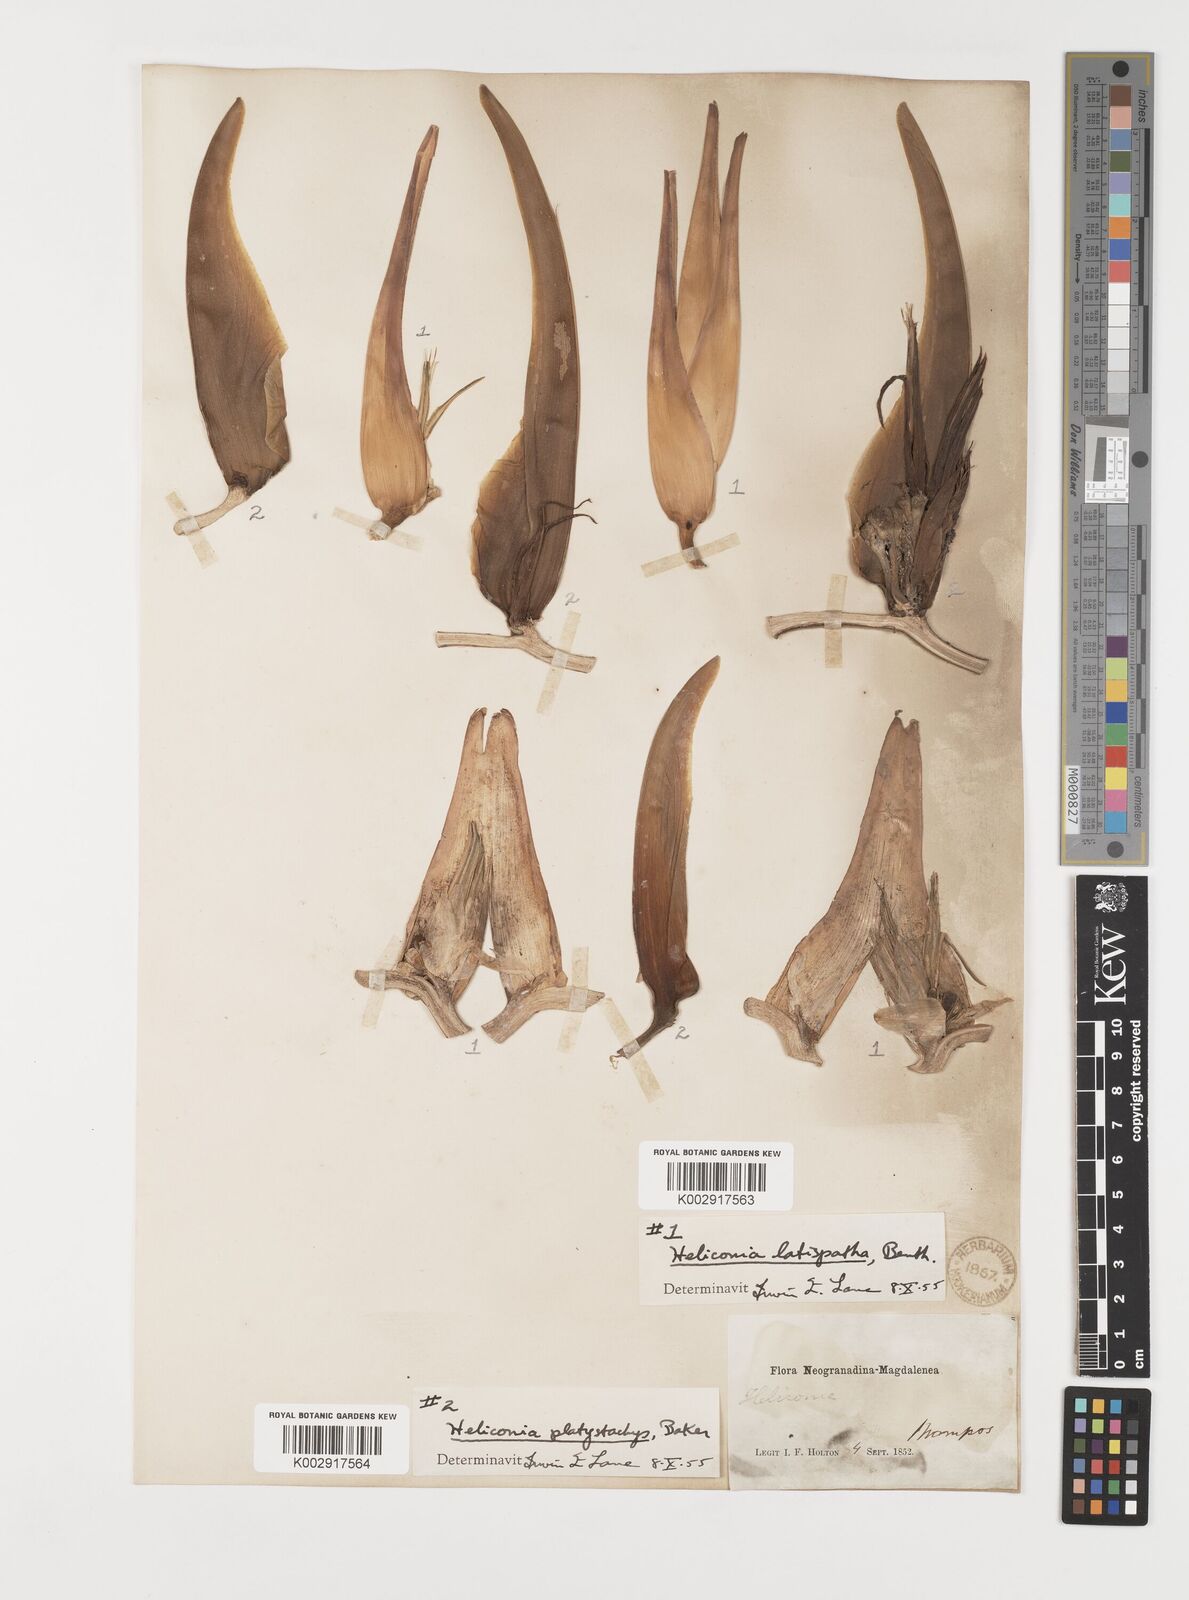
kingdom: Plantae
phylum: Tracheophyta
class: Liliopsida
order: Zingiberales
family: Heliconiaceae
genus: Heliconia
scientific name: Heliconia latispatha
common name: Expanded lobsterclaw
